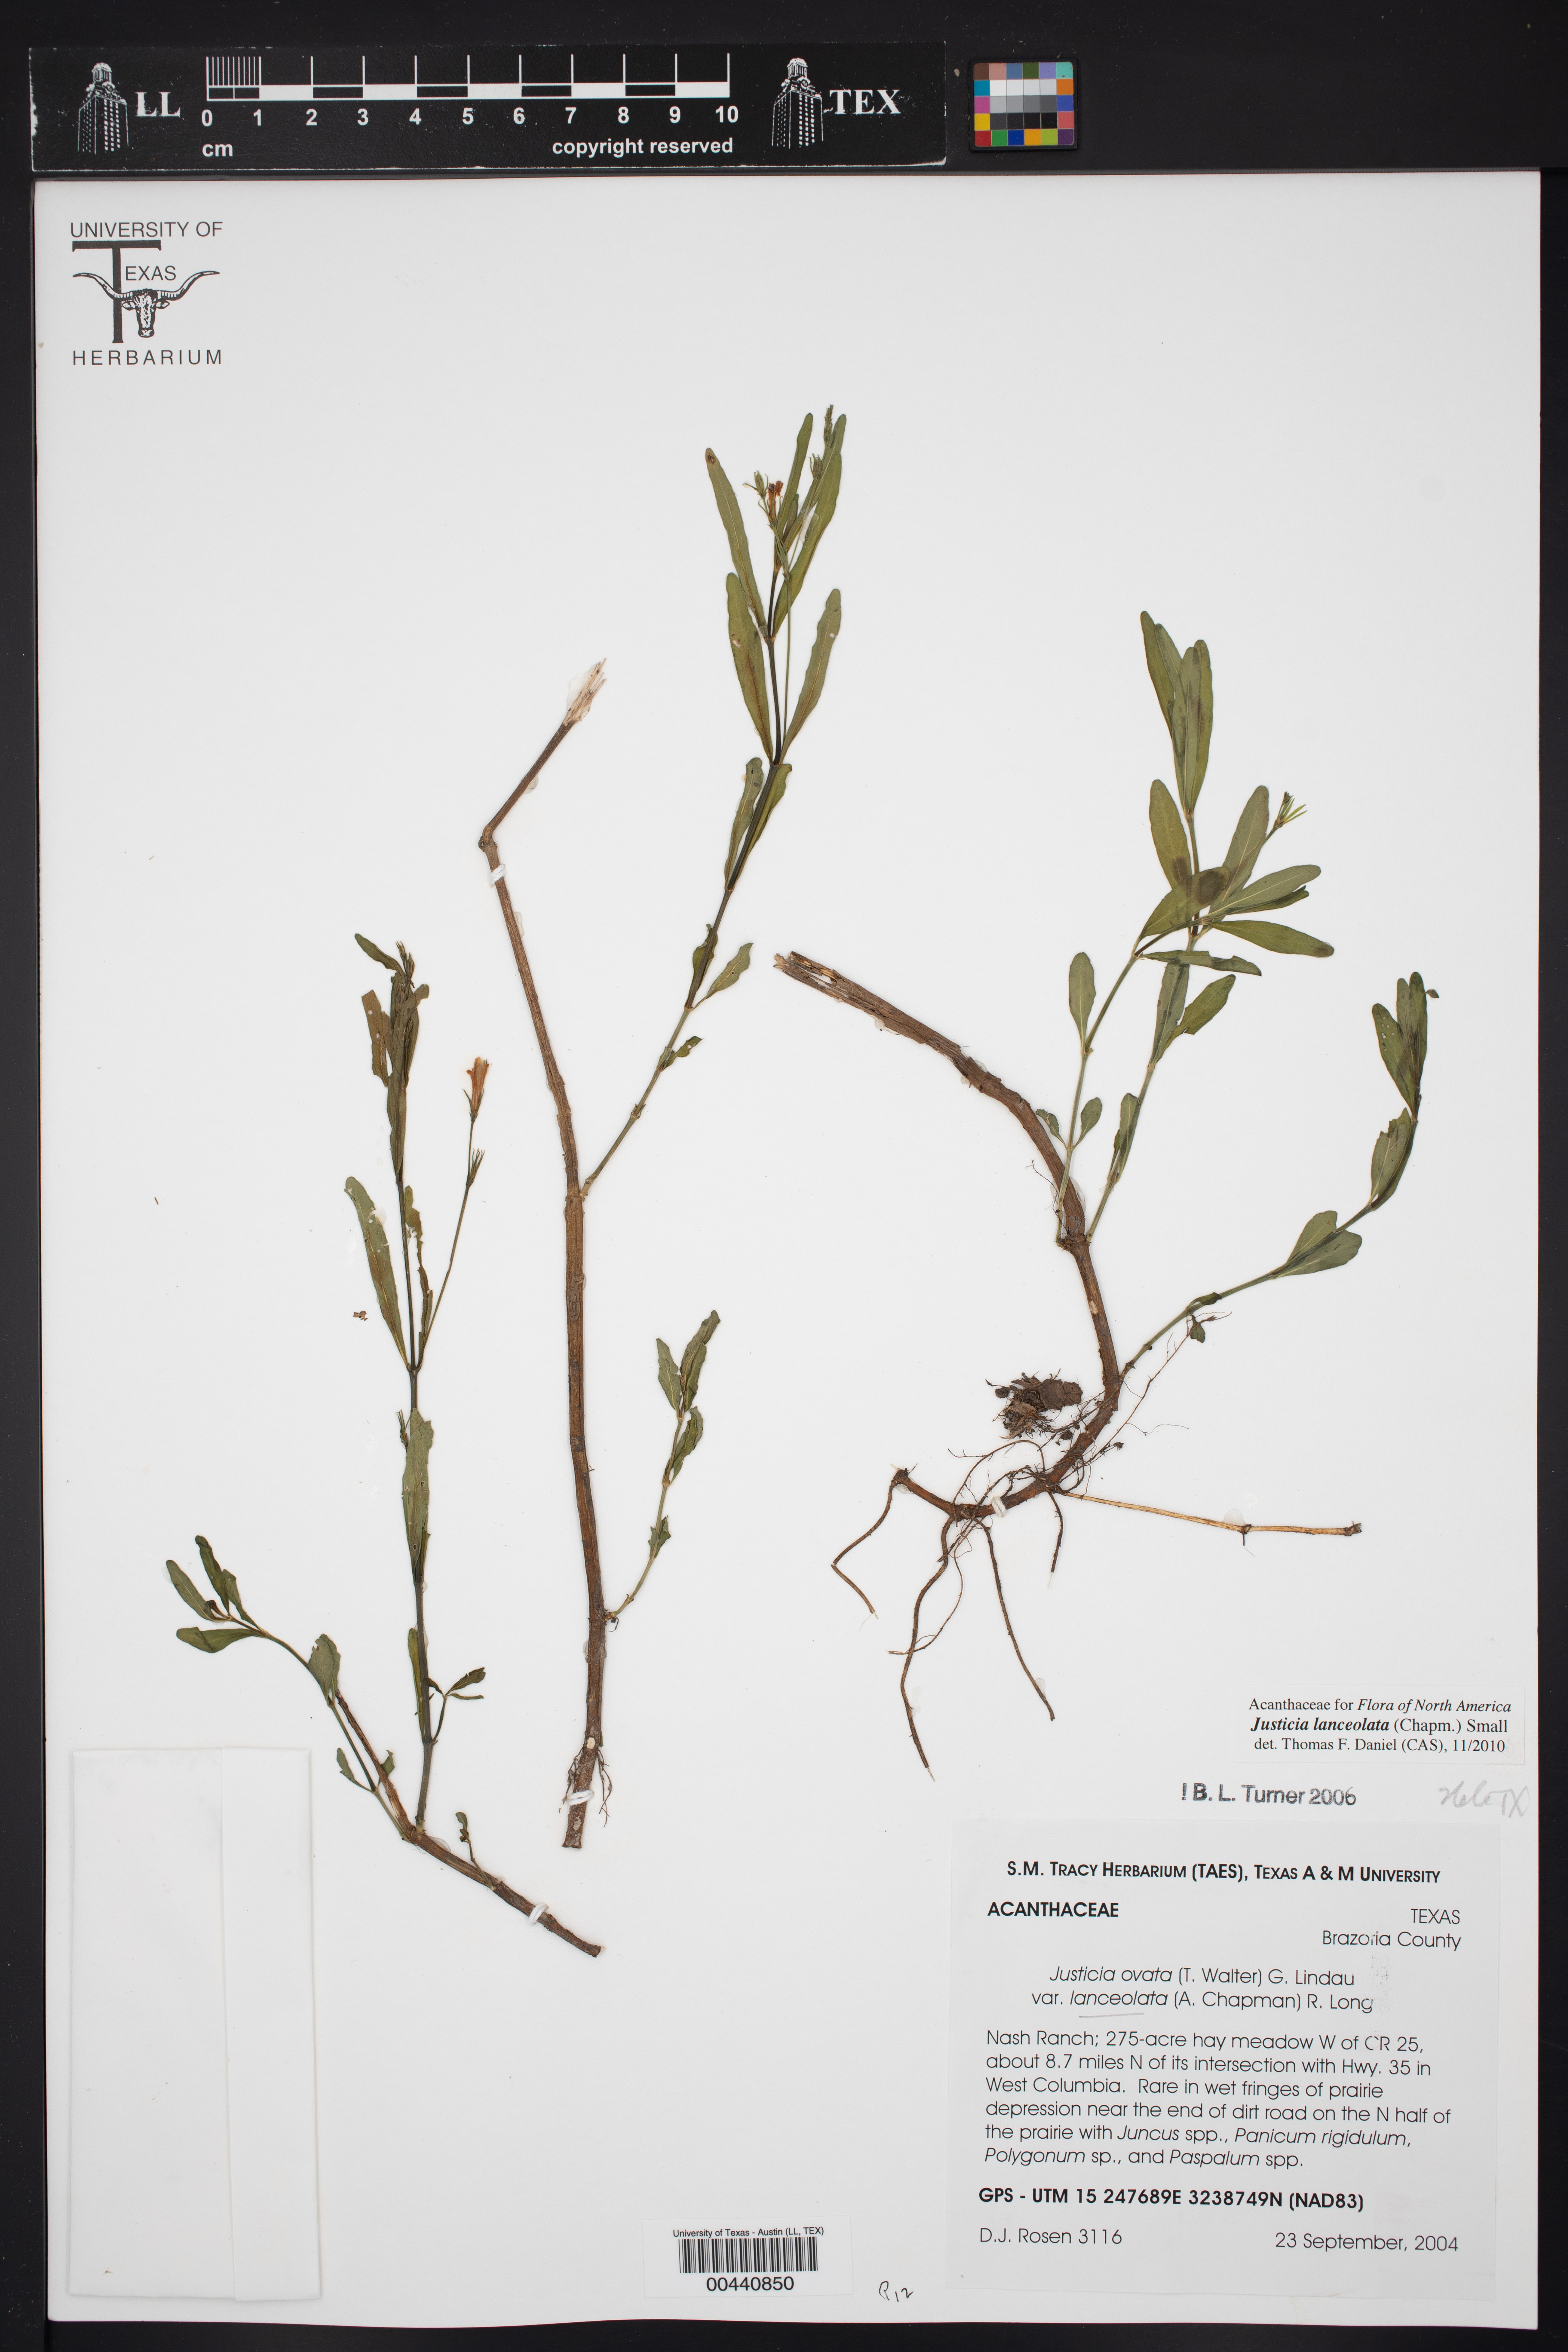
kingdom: Plantae
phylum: Tracheophyta
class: Magnoliopsida
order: Lamiales
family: Acanthaceae
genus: Justicia
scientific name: Justicia lanceolata
